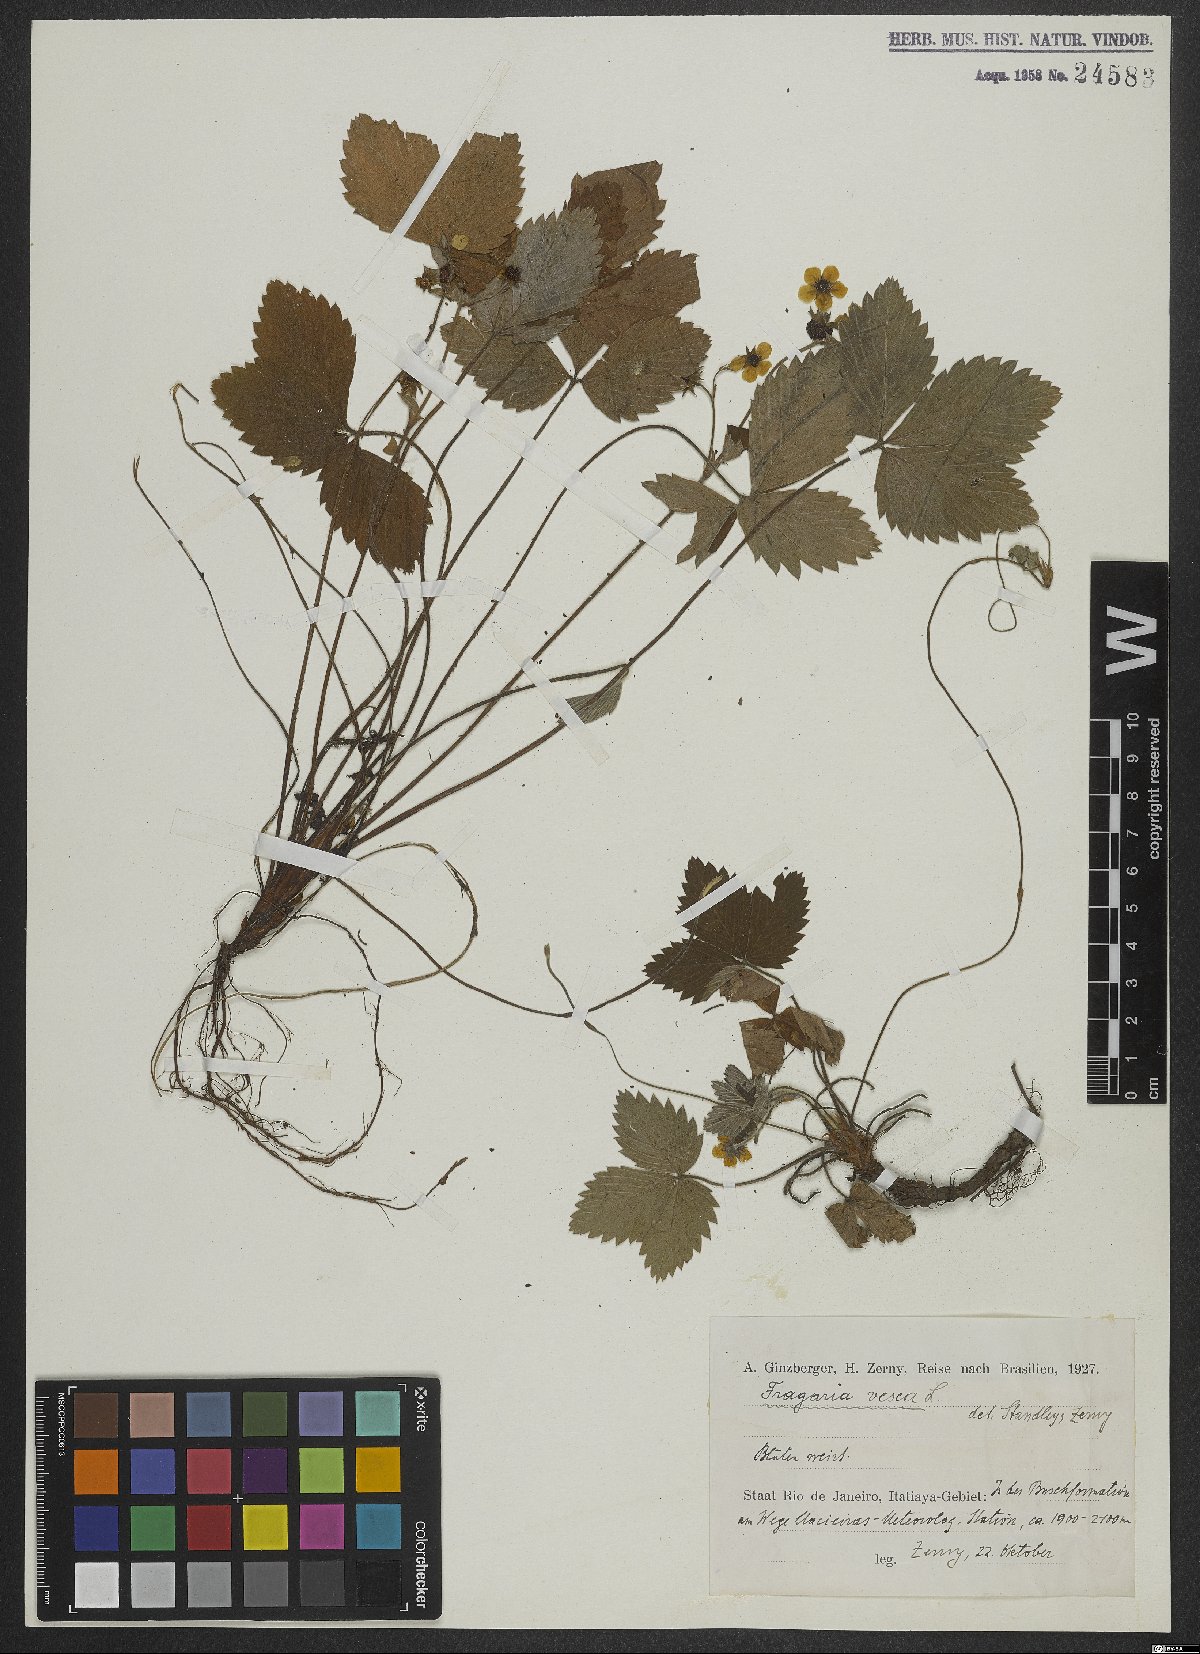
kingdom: Plantae
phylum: Tracheophyta
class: Magnoliopsida
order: Rosales
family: Rosaceae
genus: Fragaria
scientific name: Fragaria vesca
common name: Wild strawberry
